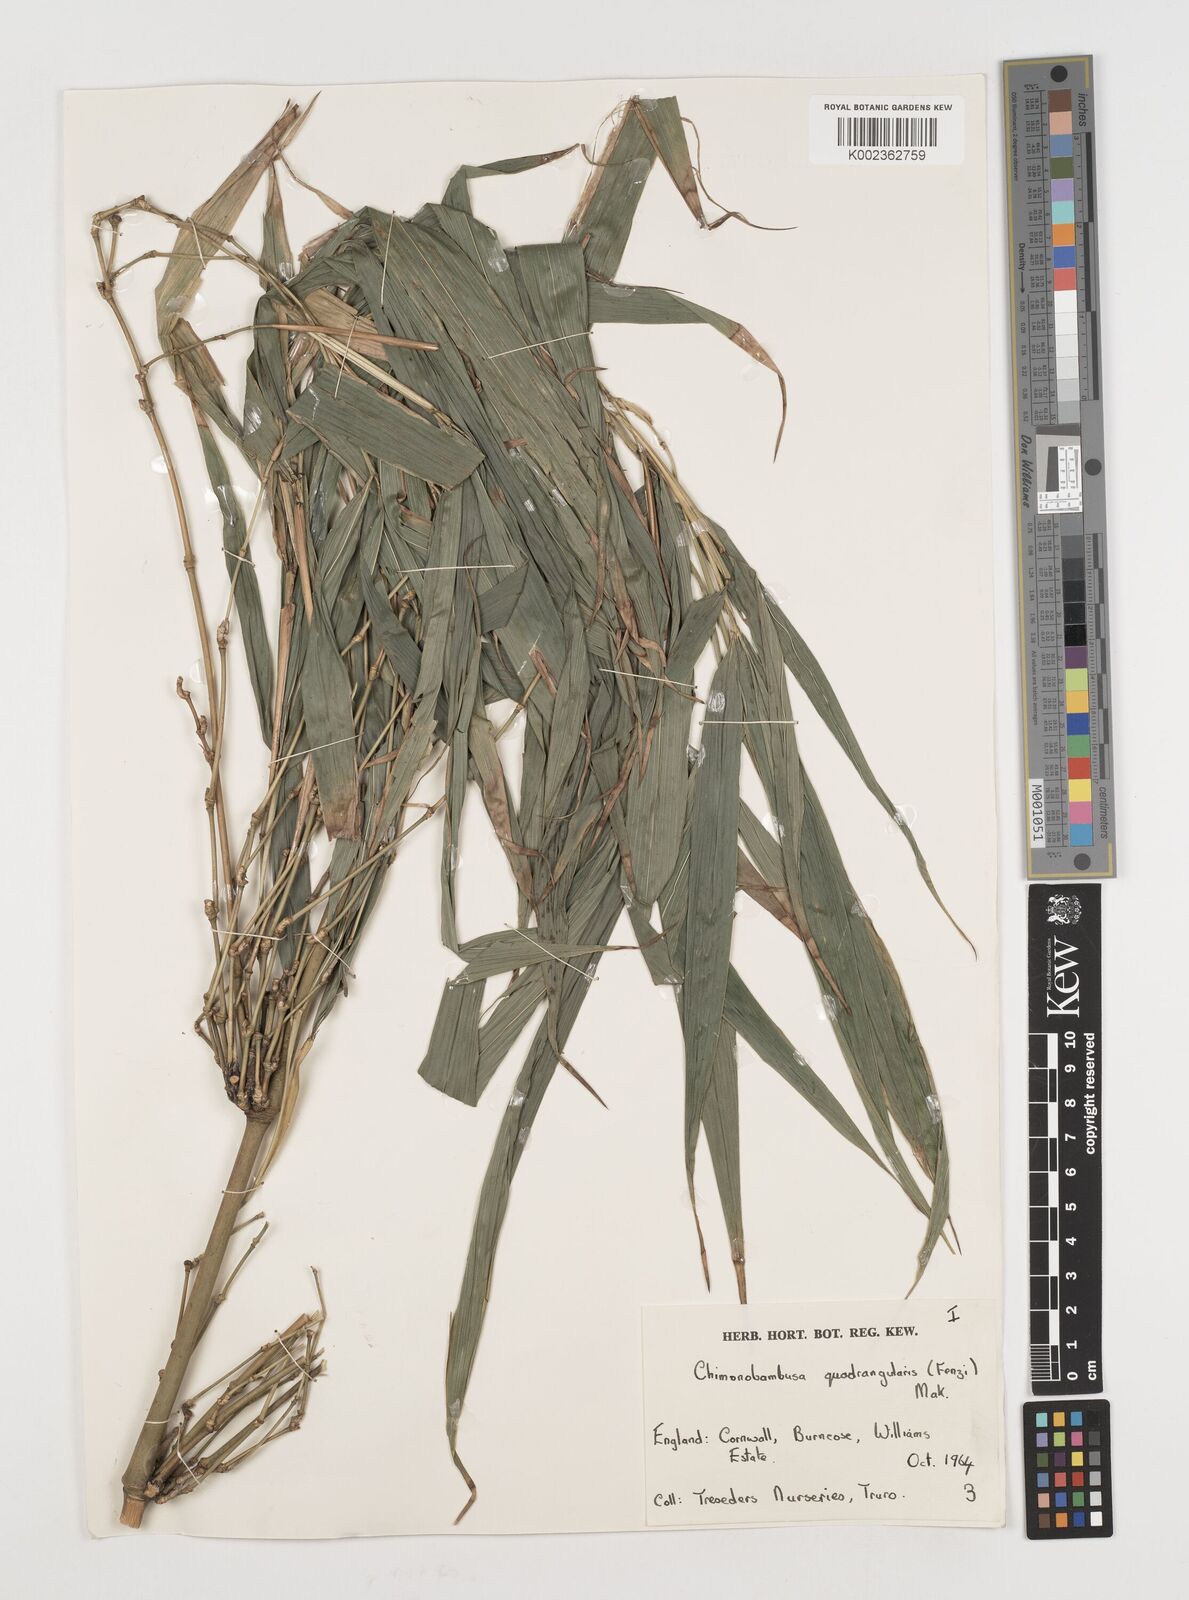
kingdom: Plantae
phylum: Tracheophyta
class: Liliopsida
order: Poales
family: Poaceae
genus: Chimonobambusa
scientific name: Chimonobambusa quadrangularis
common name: Square-stemmed bamboo
